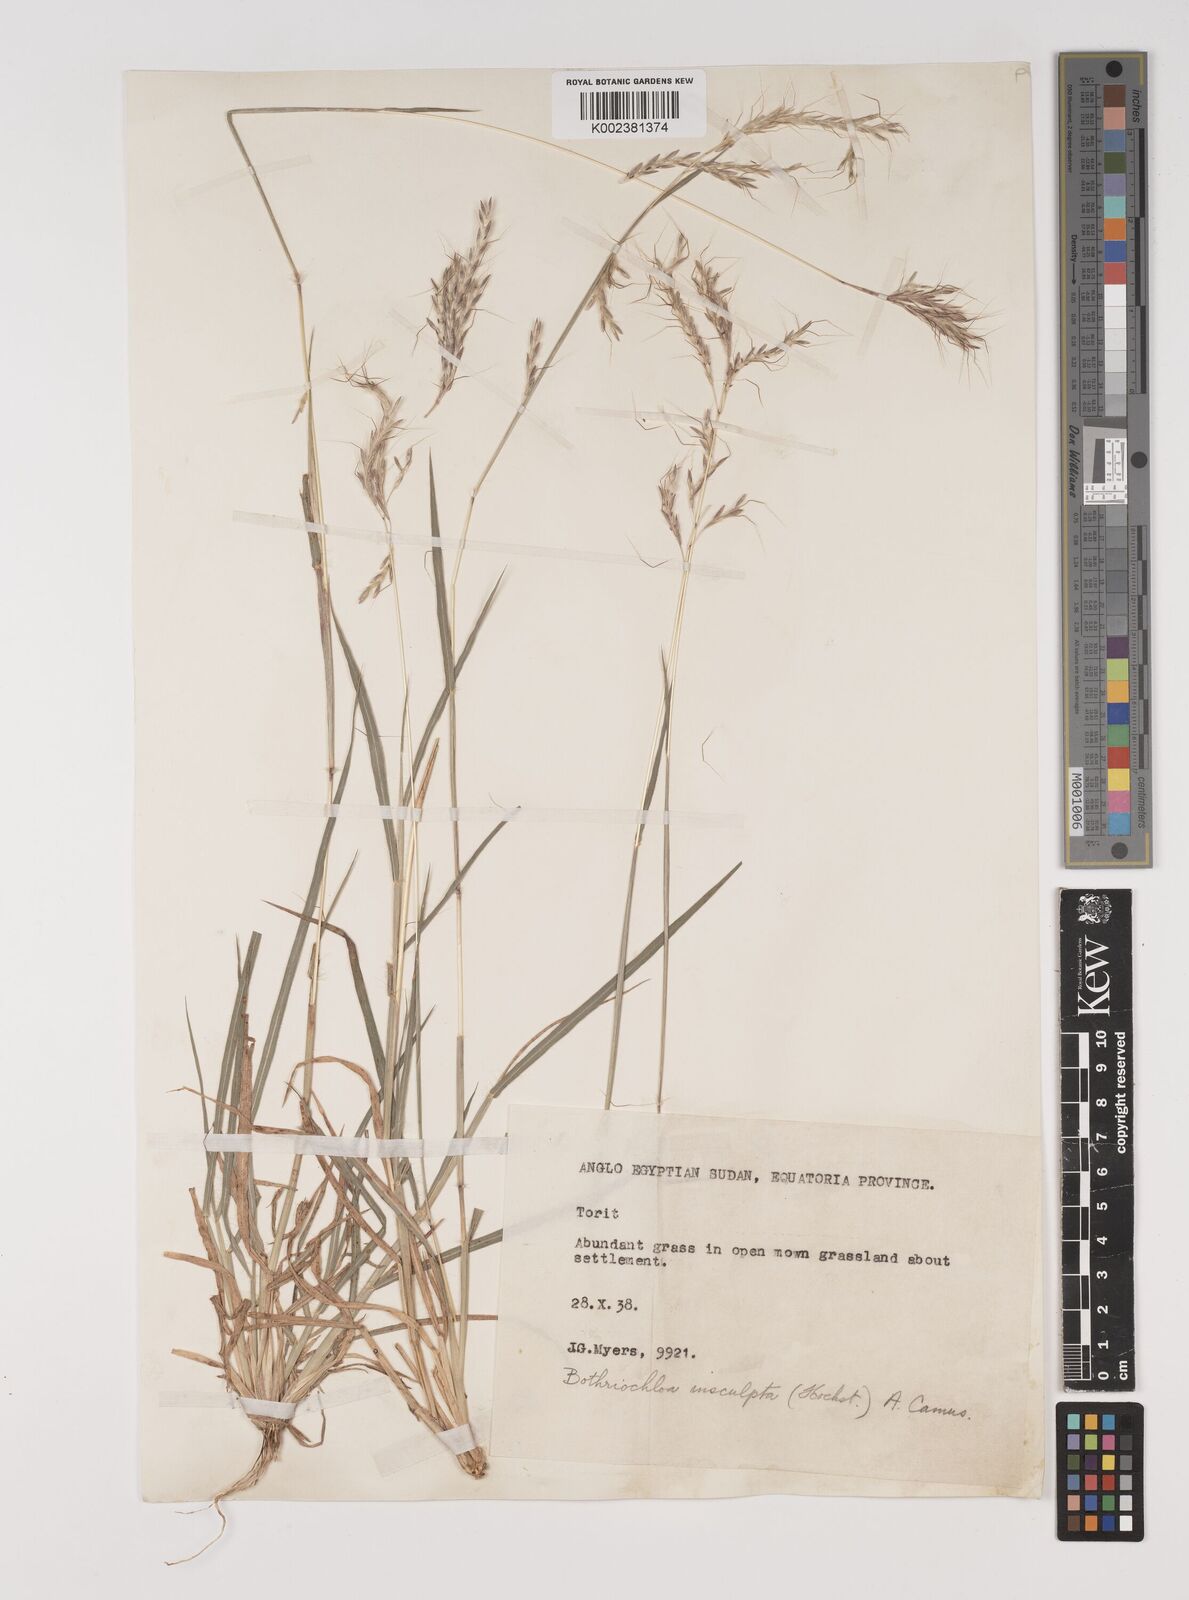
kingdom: Plantae
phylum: Tracheophyta
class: Liliopsida
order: Poales
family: Poaceae
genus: Bothriochloa
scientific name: Bothriochloa insculpta
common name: Creeping-bluegrass
